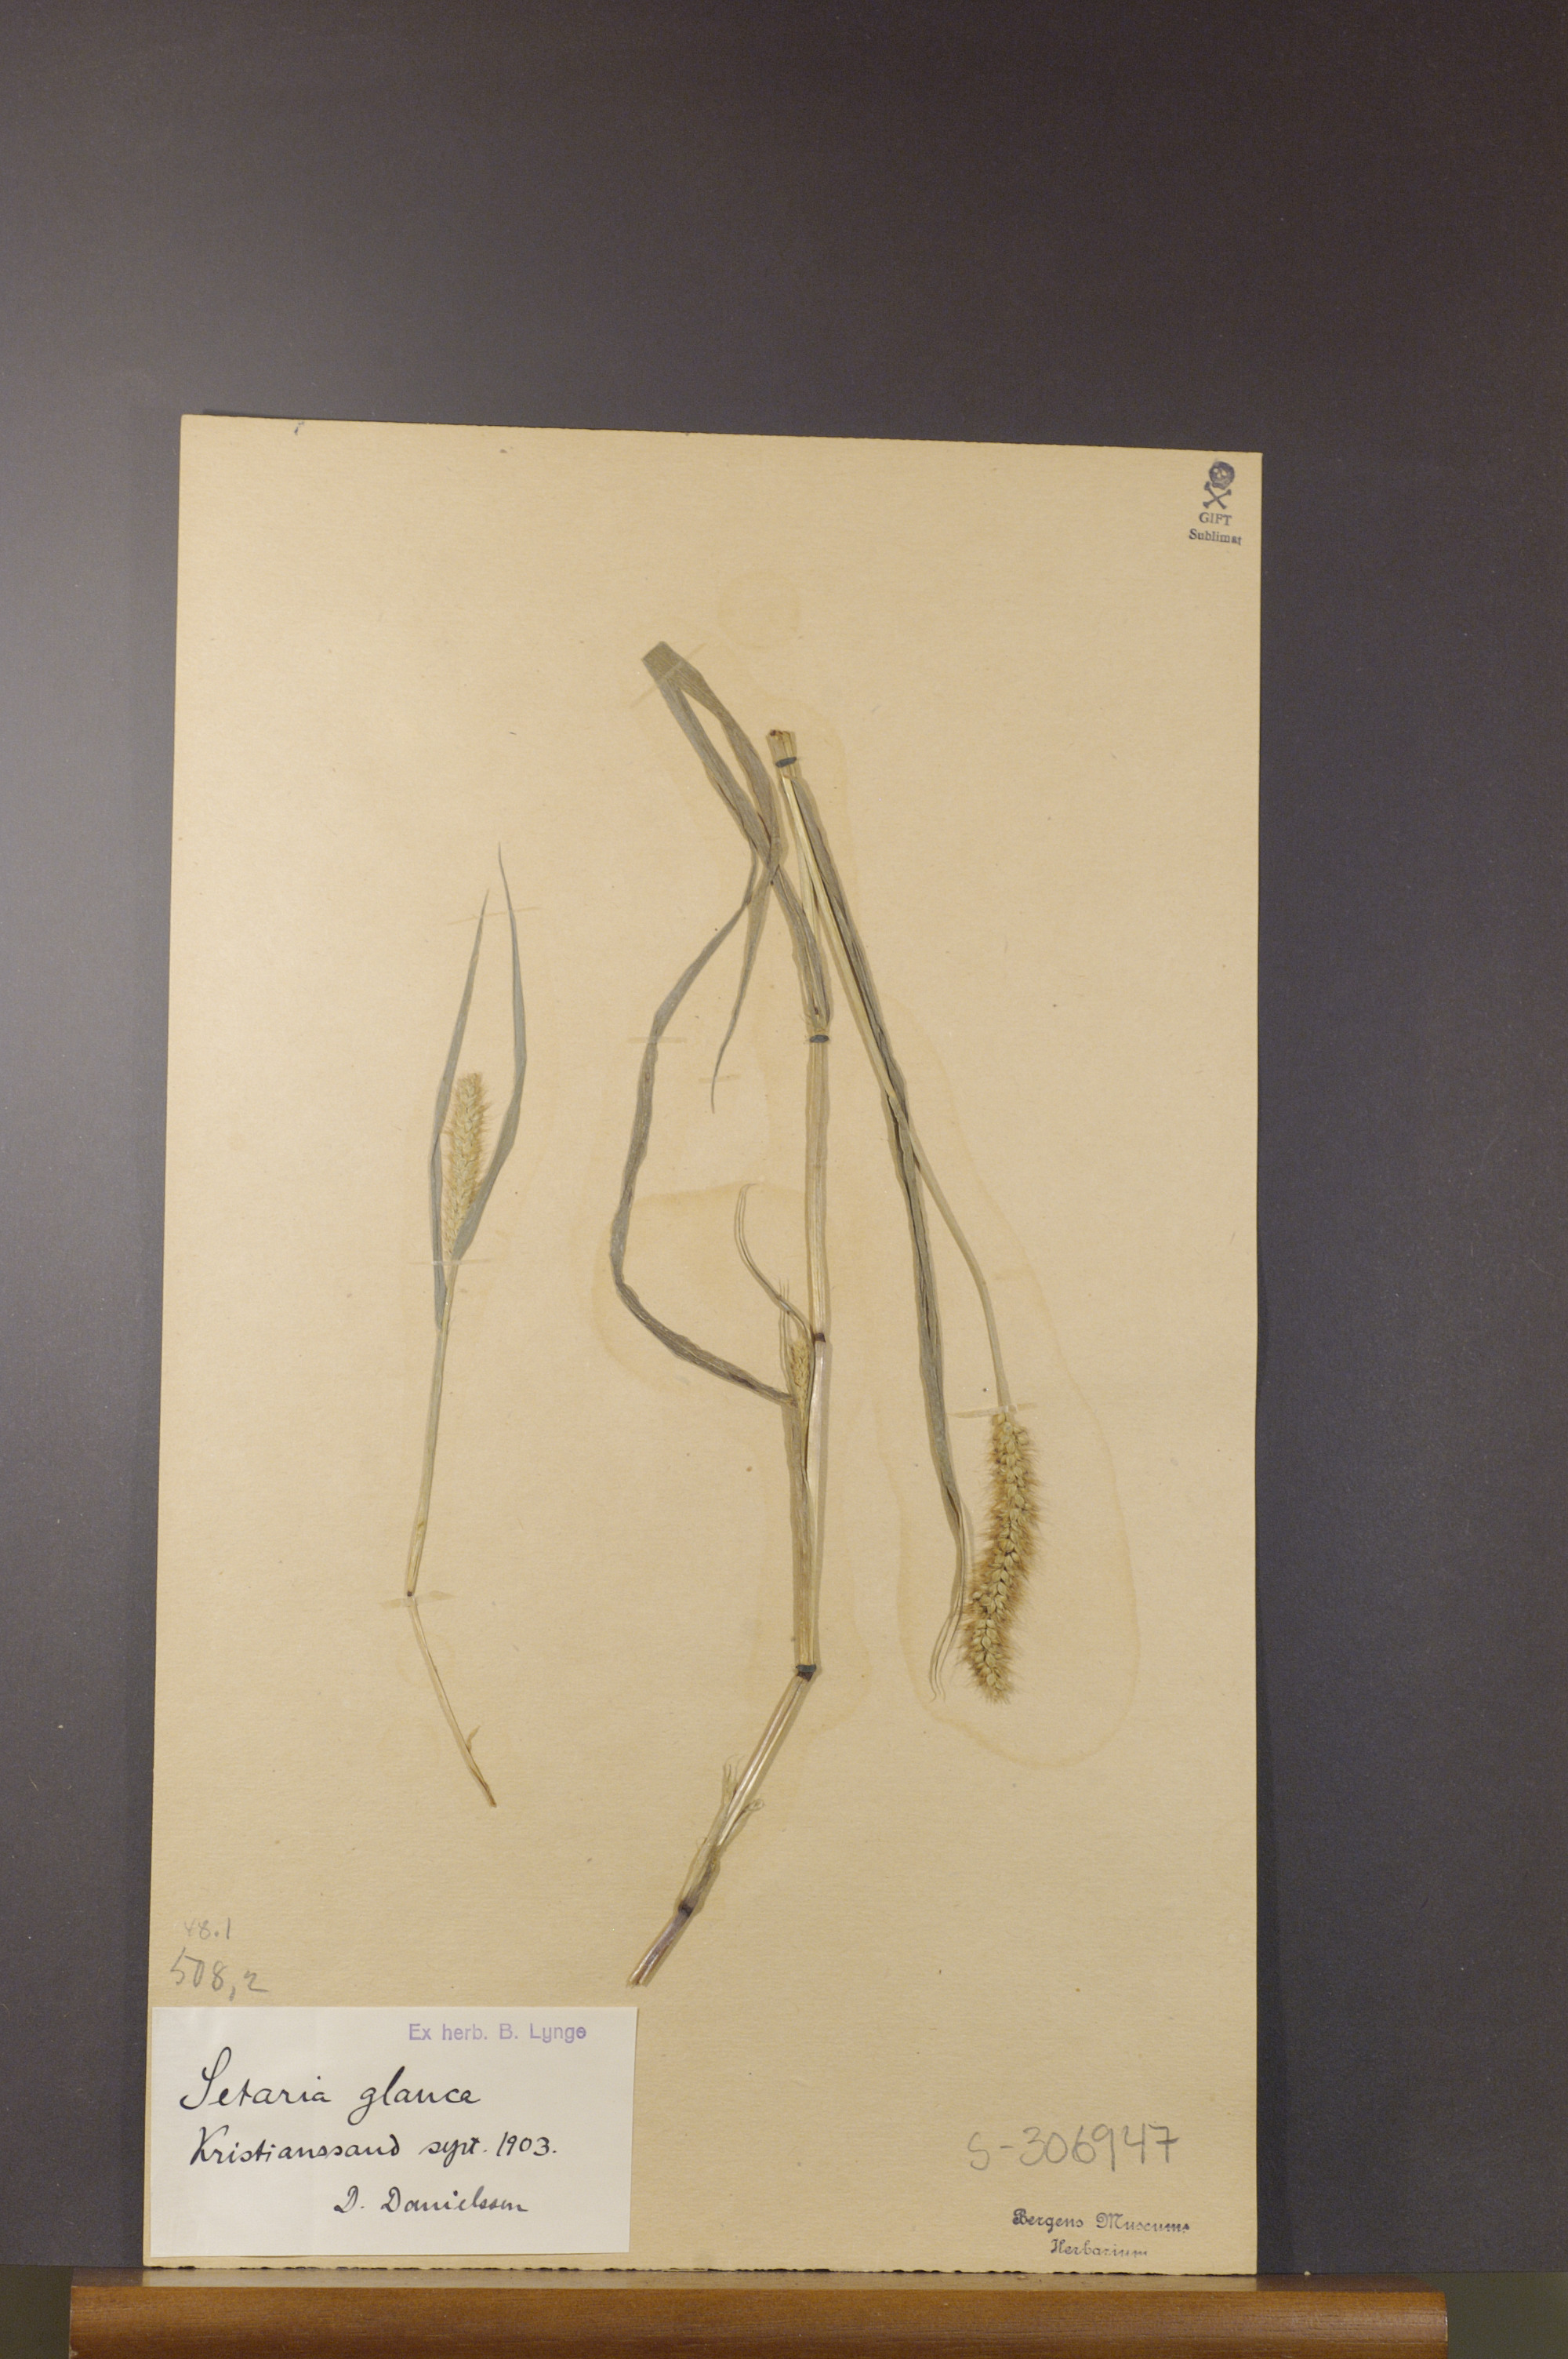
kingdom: Plantae
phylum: Tracheophyta
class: Liliopsida
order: Poales
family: Poaceae
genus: Setaria
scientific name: Setaria pumila
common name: Yellow bristle-grass
